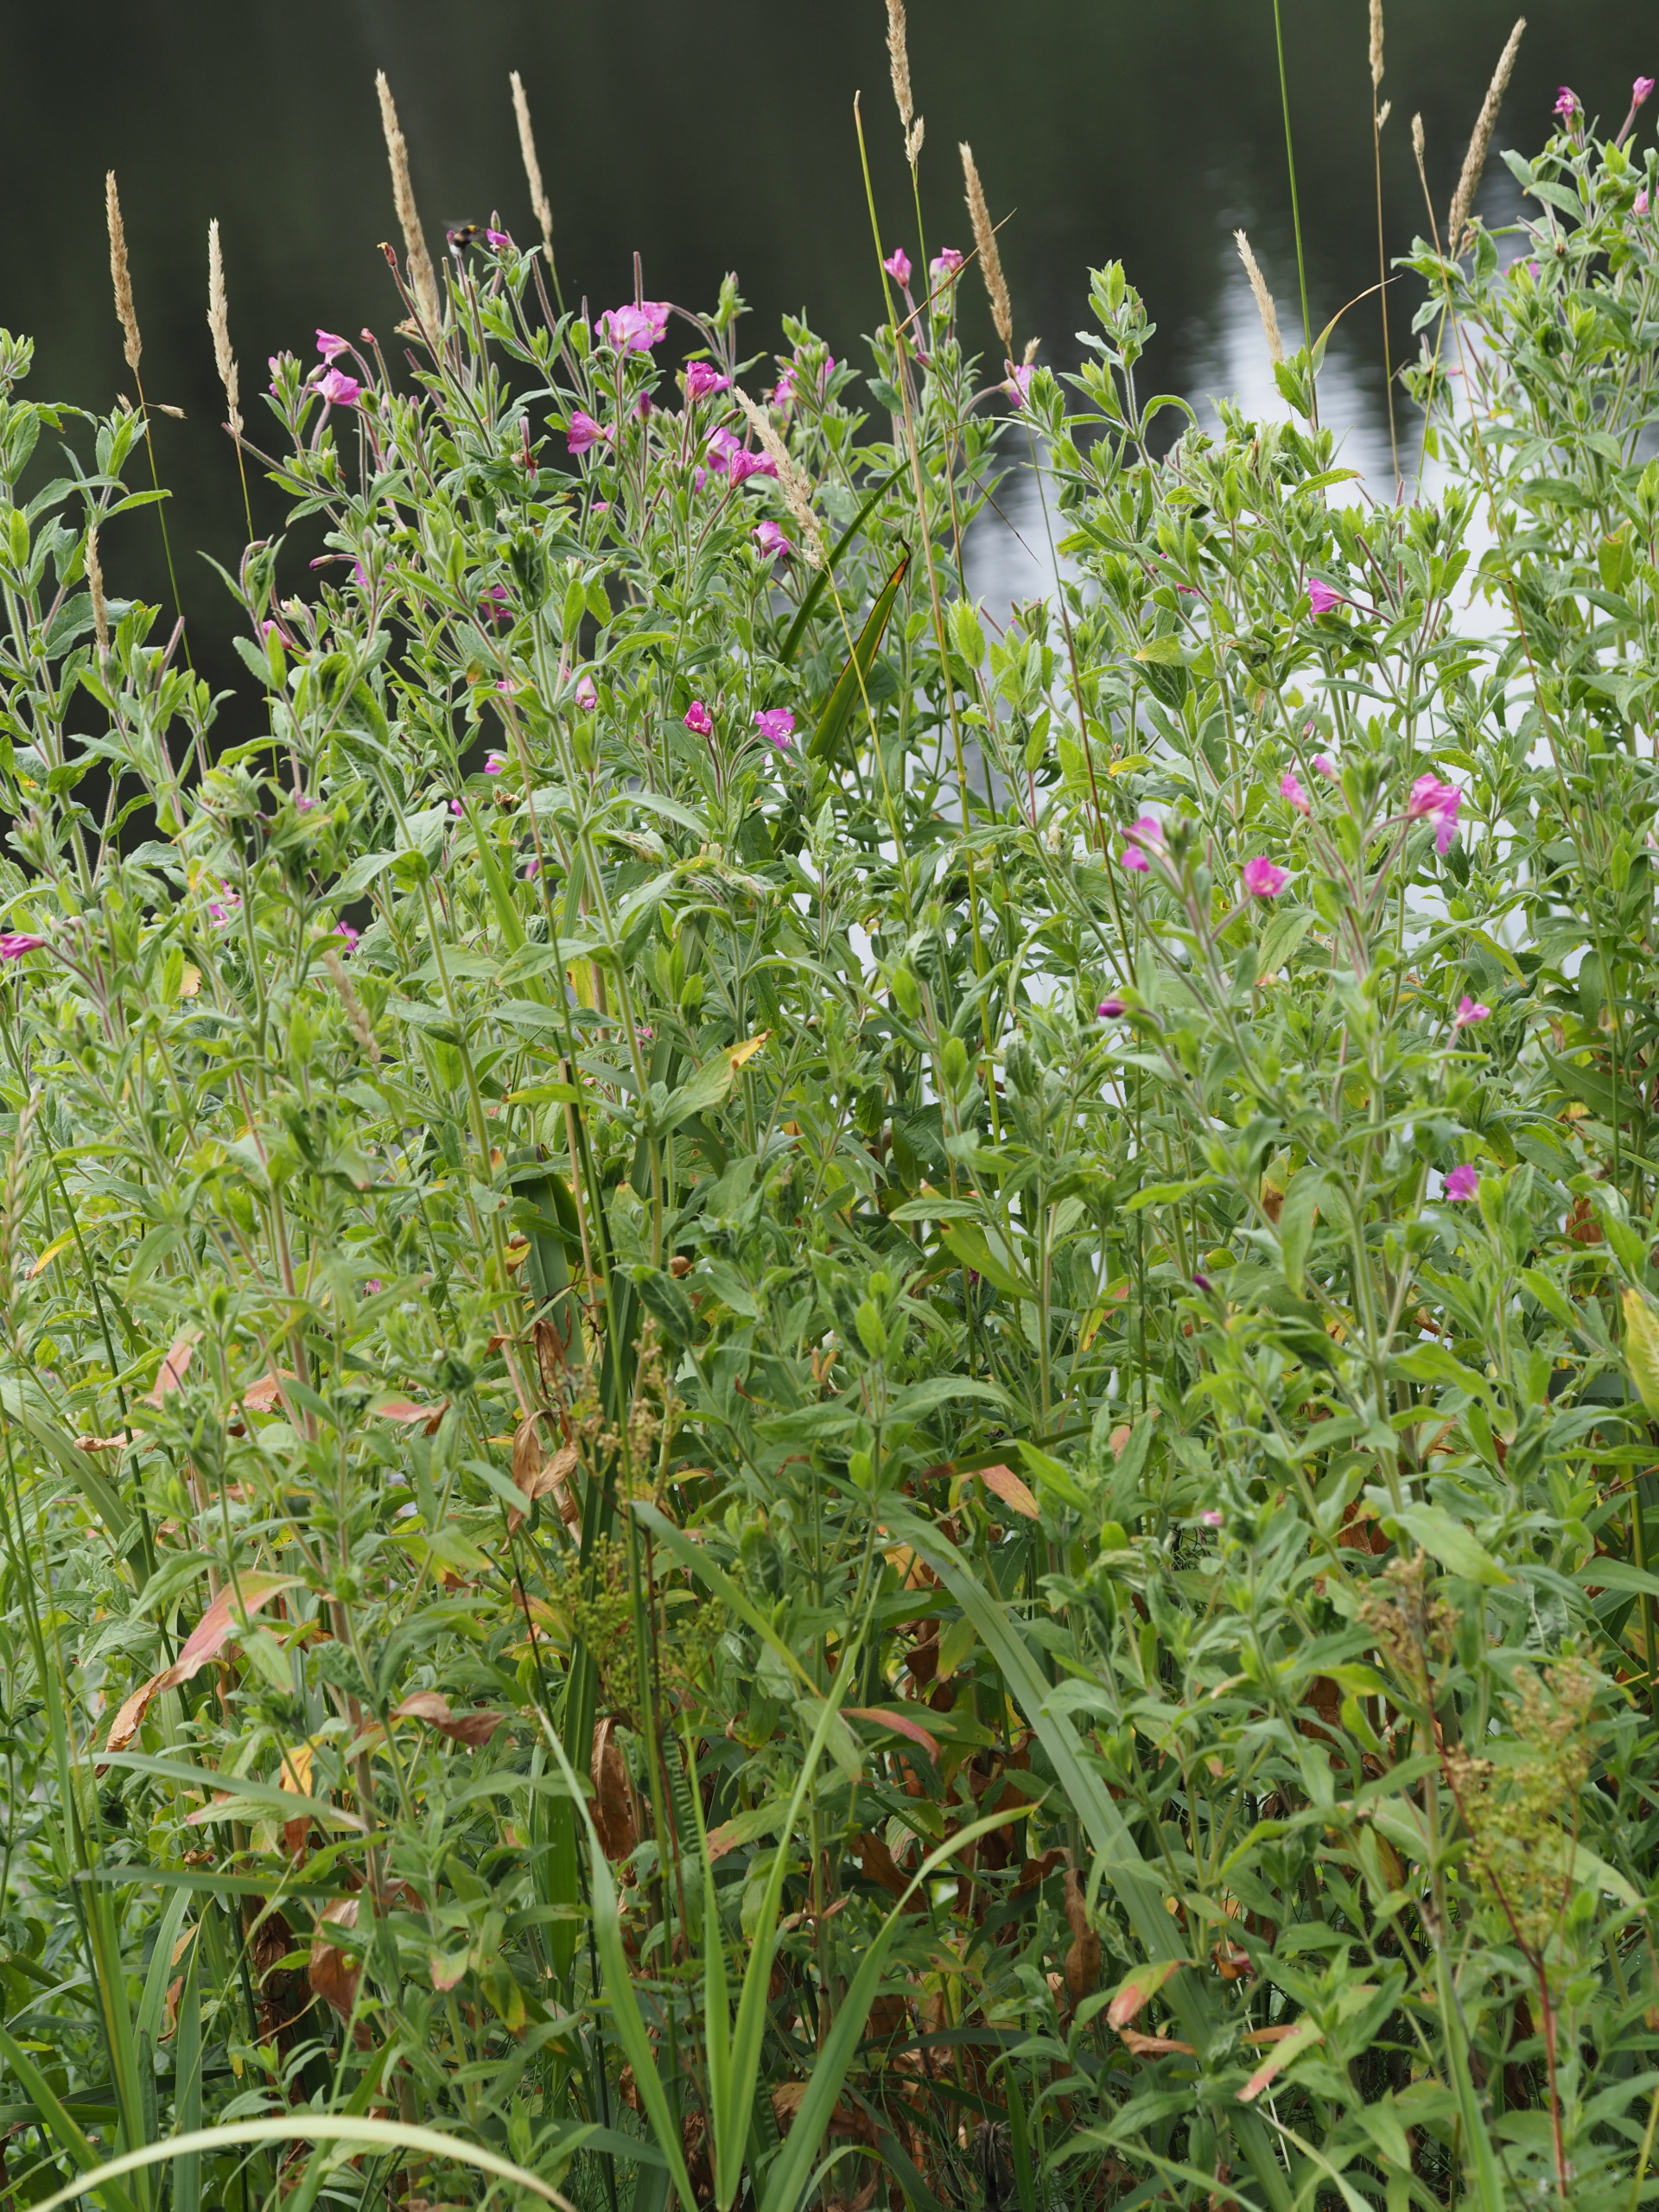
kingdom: Plantae
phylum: Tracheophyta
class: Magnoliopsida
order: Myrtales
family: Onagraceae
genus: Epilobium
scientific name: Epilobium hirsutum
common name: Lådden dueurt
